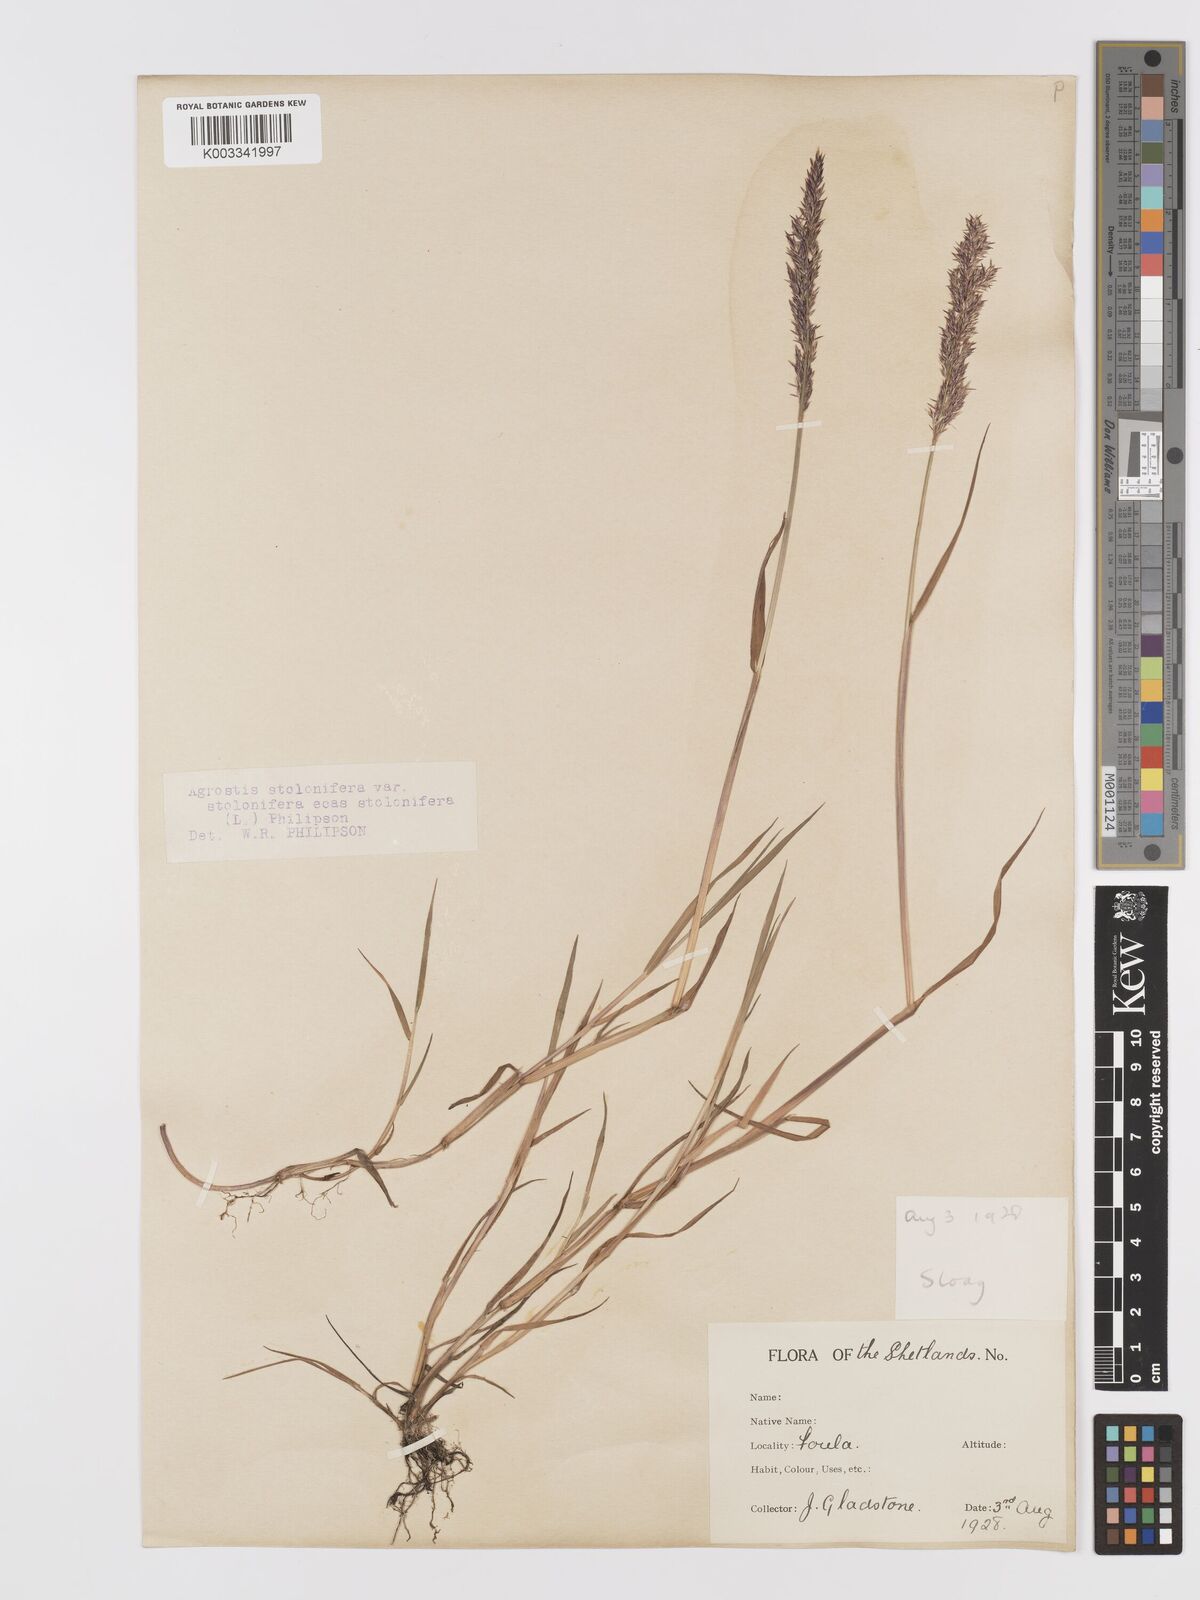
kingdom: Plantae
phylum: Tracheophyta
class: Liliopsida
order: Poales
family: Poaceae
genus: Agrostis
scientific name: Agrostis stolonifera
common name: Creeping bentgrass
